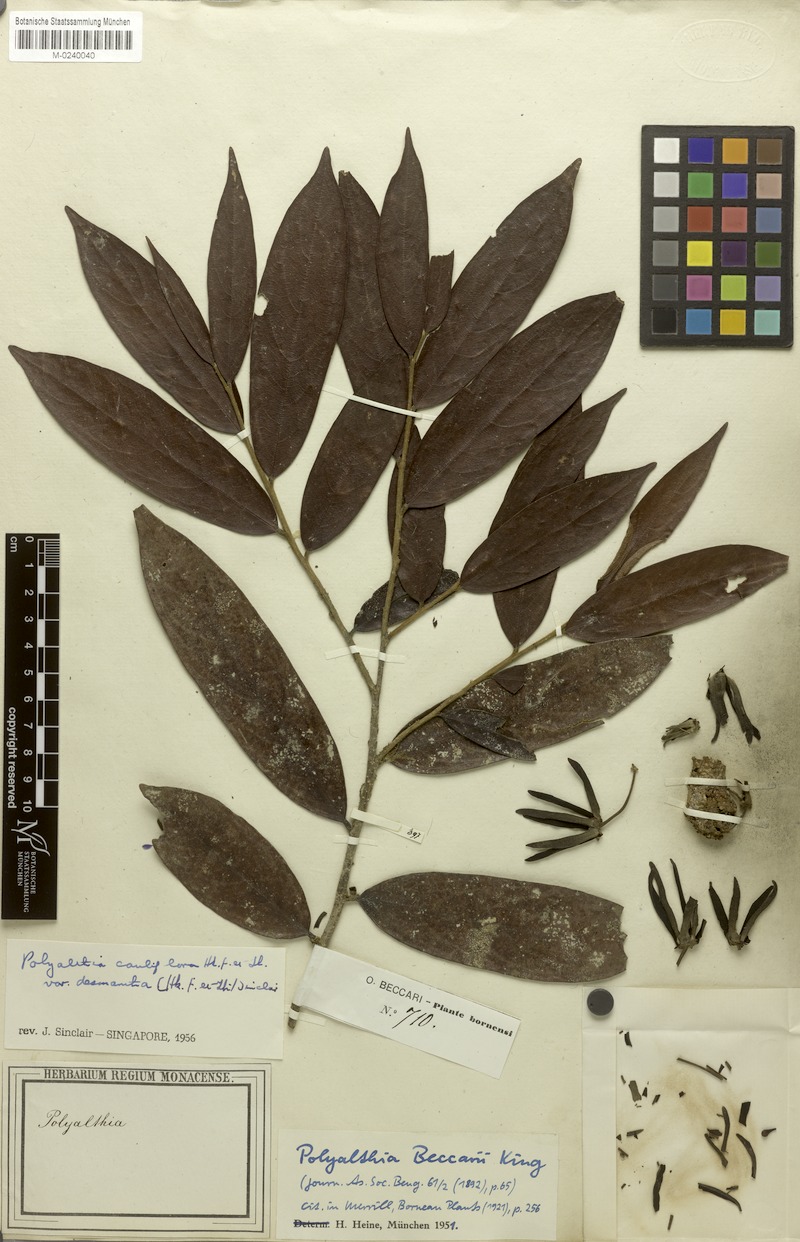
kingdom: Plantae
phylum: Tracheophyta
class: Magnoliopsida
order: Magnoliales
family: Annonaceae
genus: Polyalthia
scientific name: Polyalthia cauliflora
